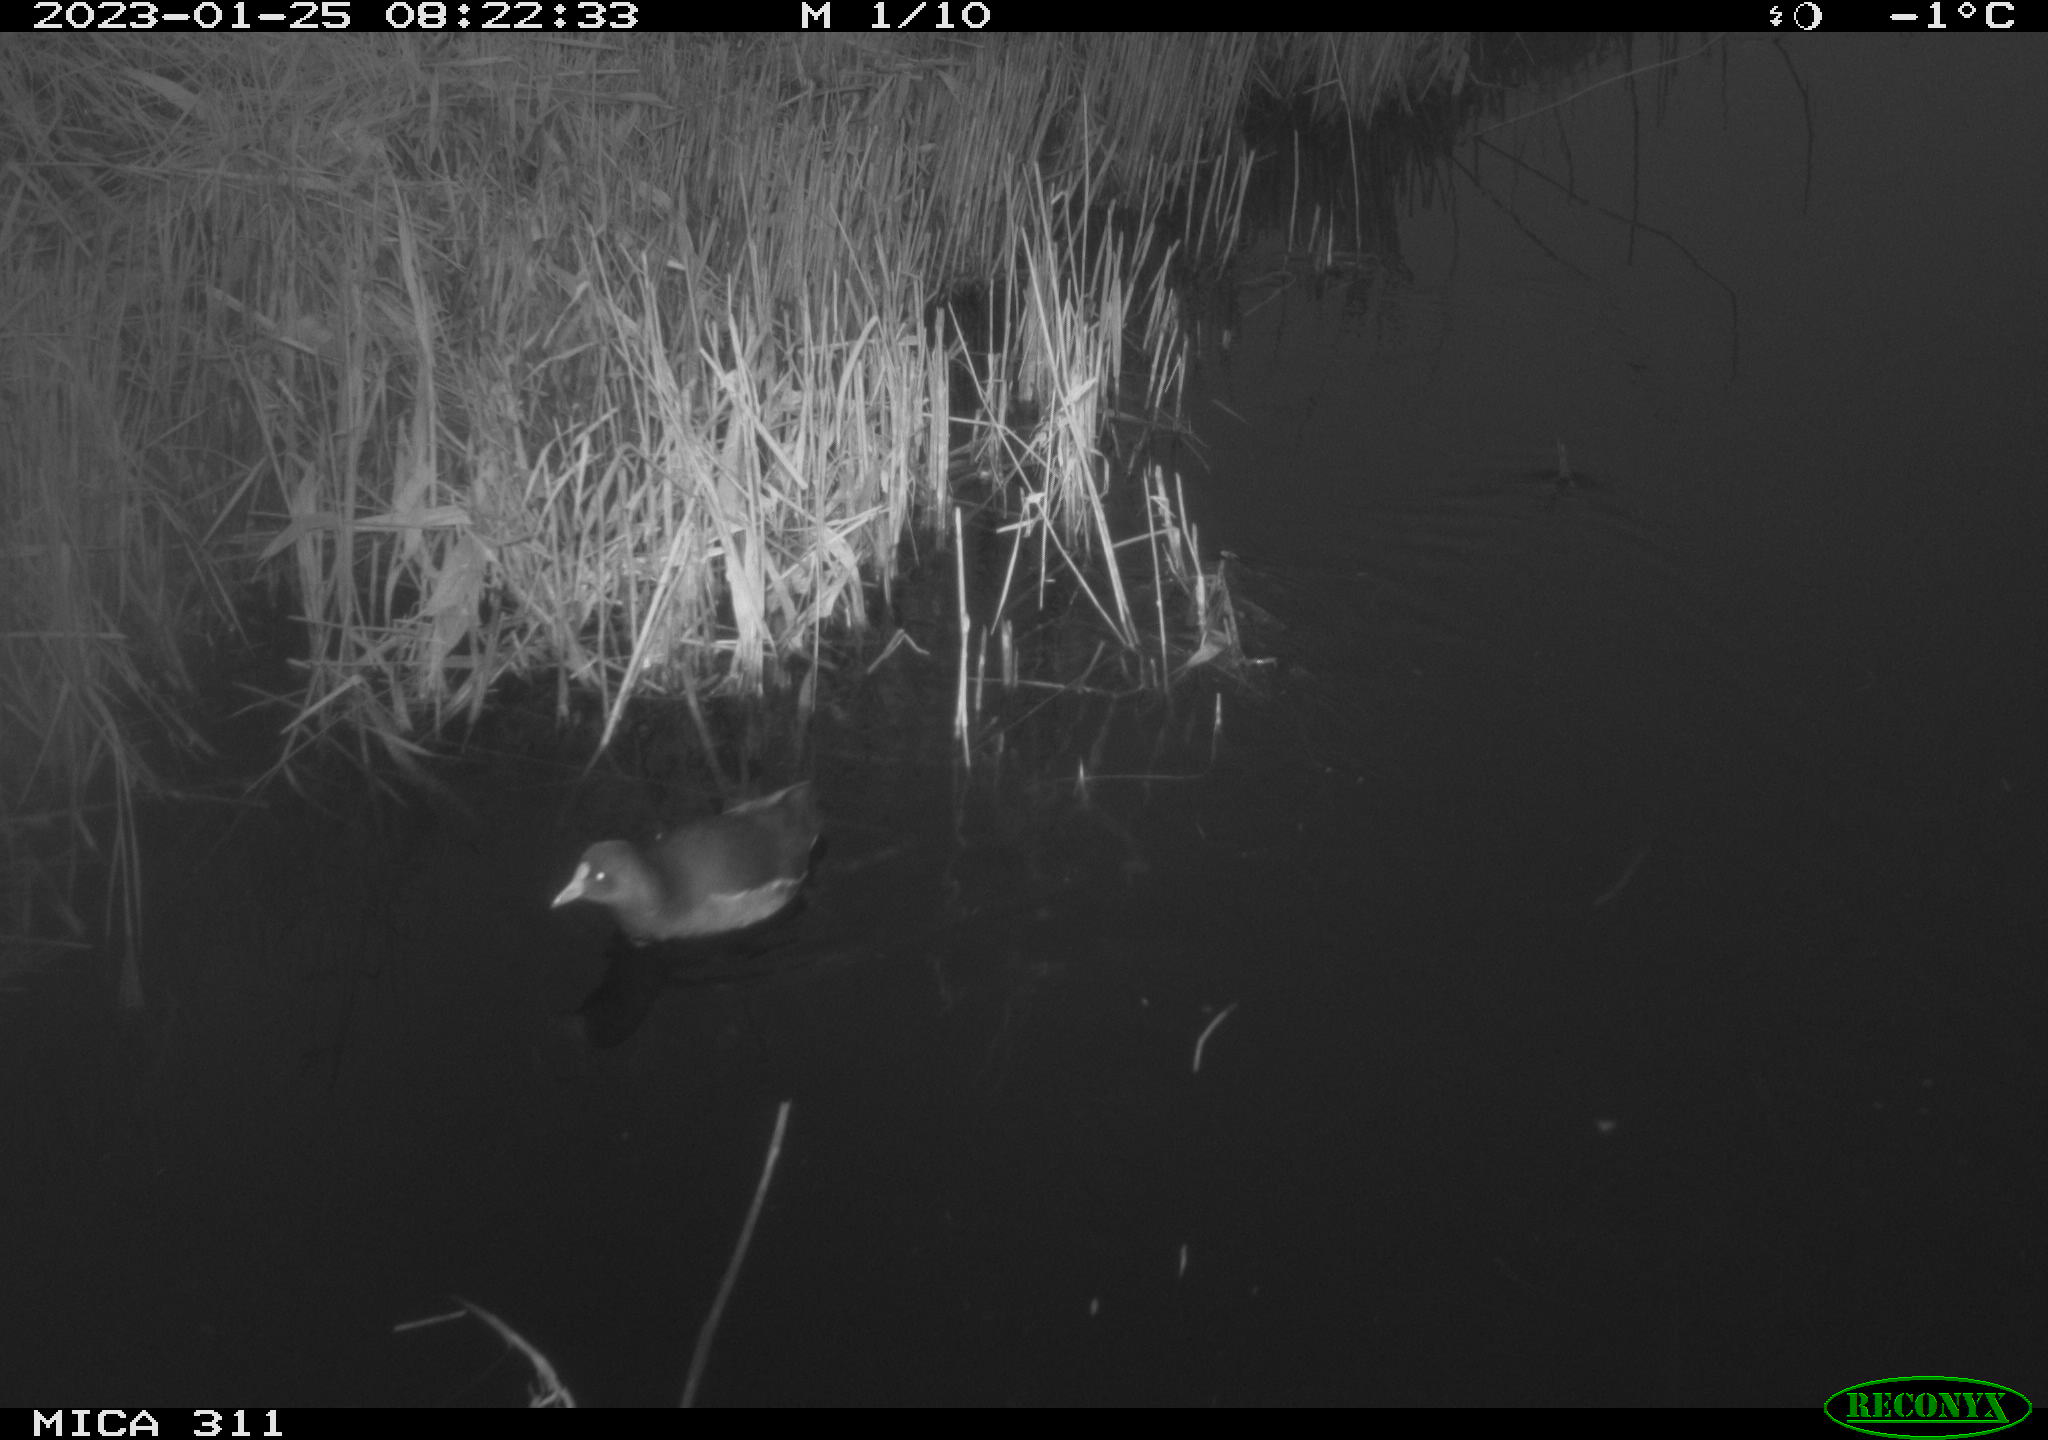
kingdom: Animalia
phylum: Chordata
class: Aves
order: Gruiformes
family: Rallidae
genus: Gallinula
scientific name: Gallinula chloropus
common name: Common moorhen
